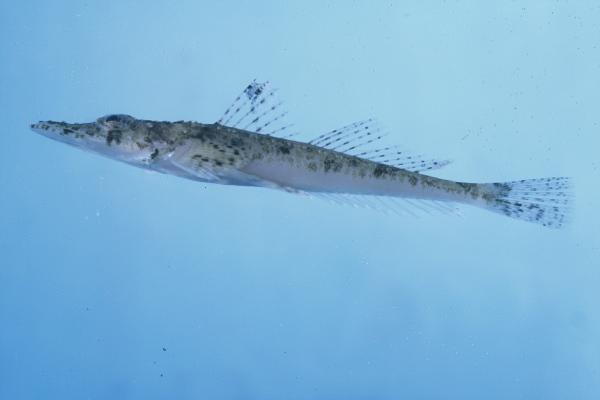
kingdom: Animalia
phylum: Chordata
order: Scorpaeniformes
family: Platycephalidae
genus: Thysanophrys
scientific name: Thysanophrys chiltonae
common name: Longsnout flathead
